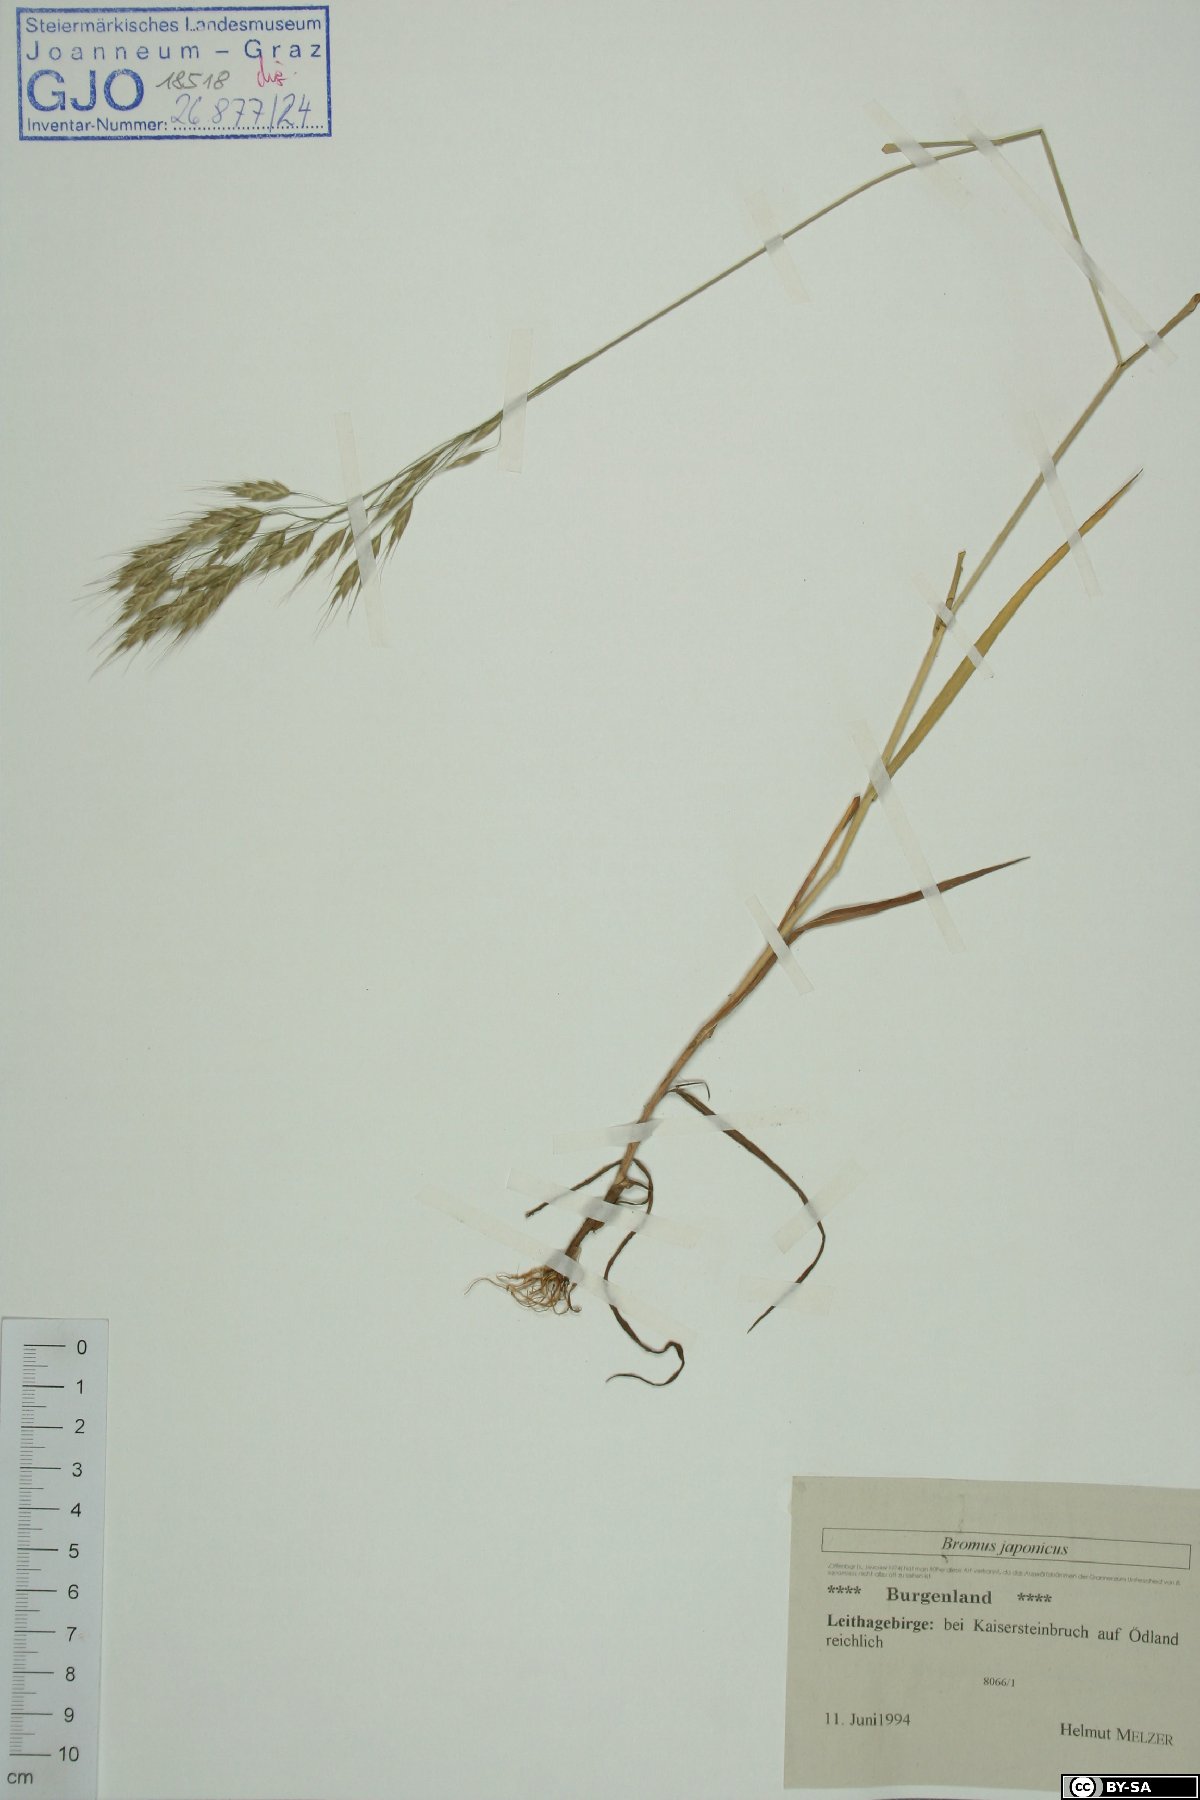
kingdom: Plantae
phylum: Tracheophyta
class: Liliopsida
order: Poales
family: Poaceae
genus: Bromus
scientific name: Bromus japonicus
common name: Japanese brome
